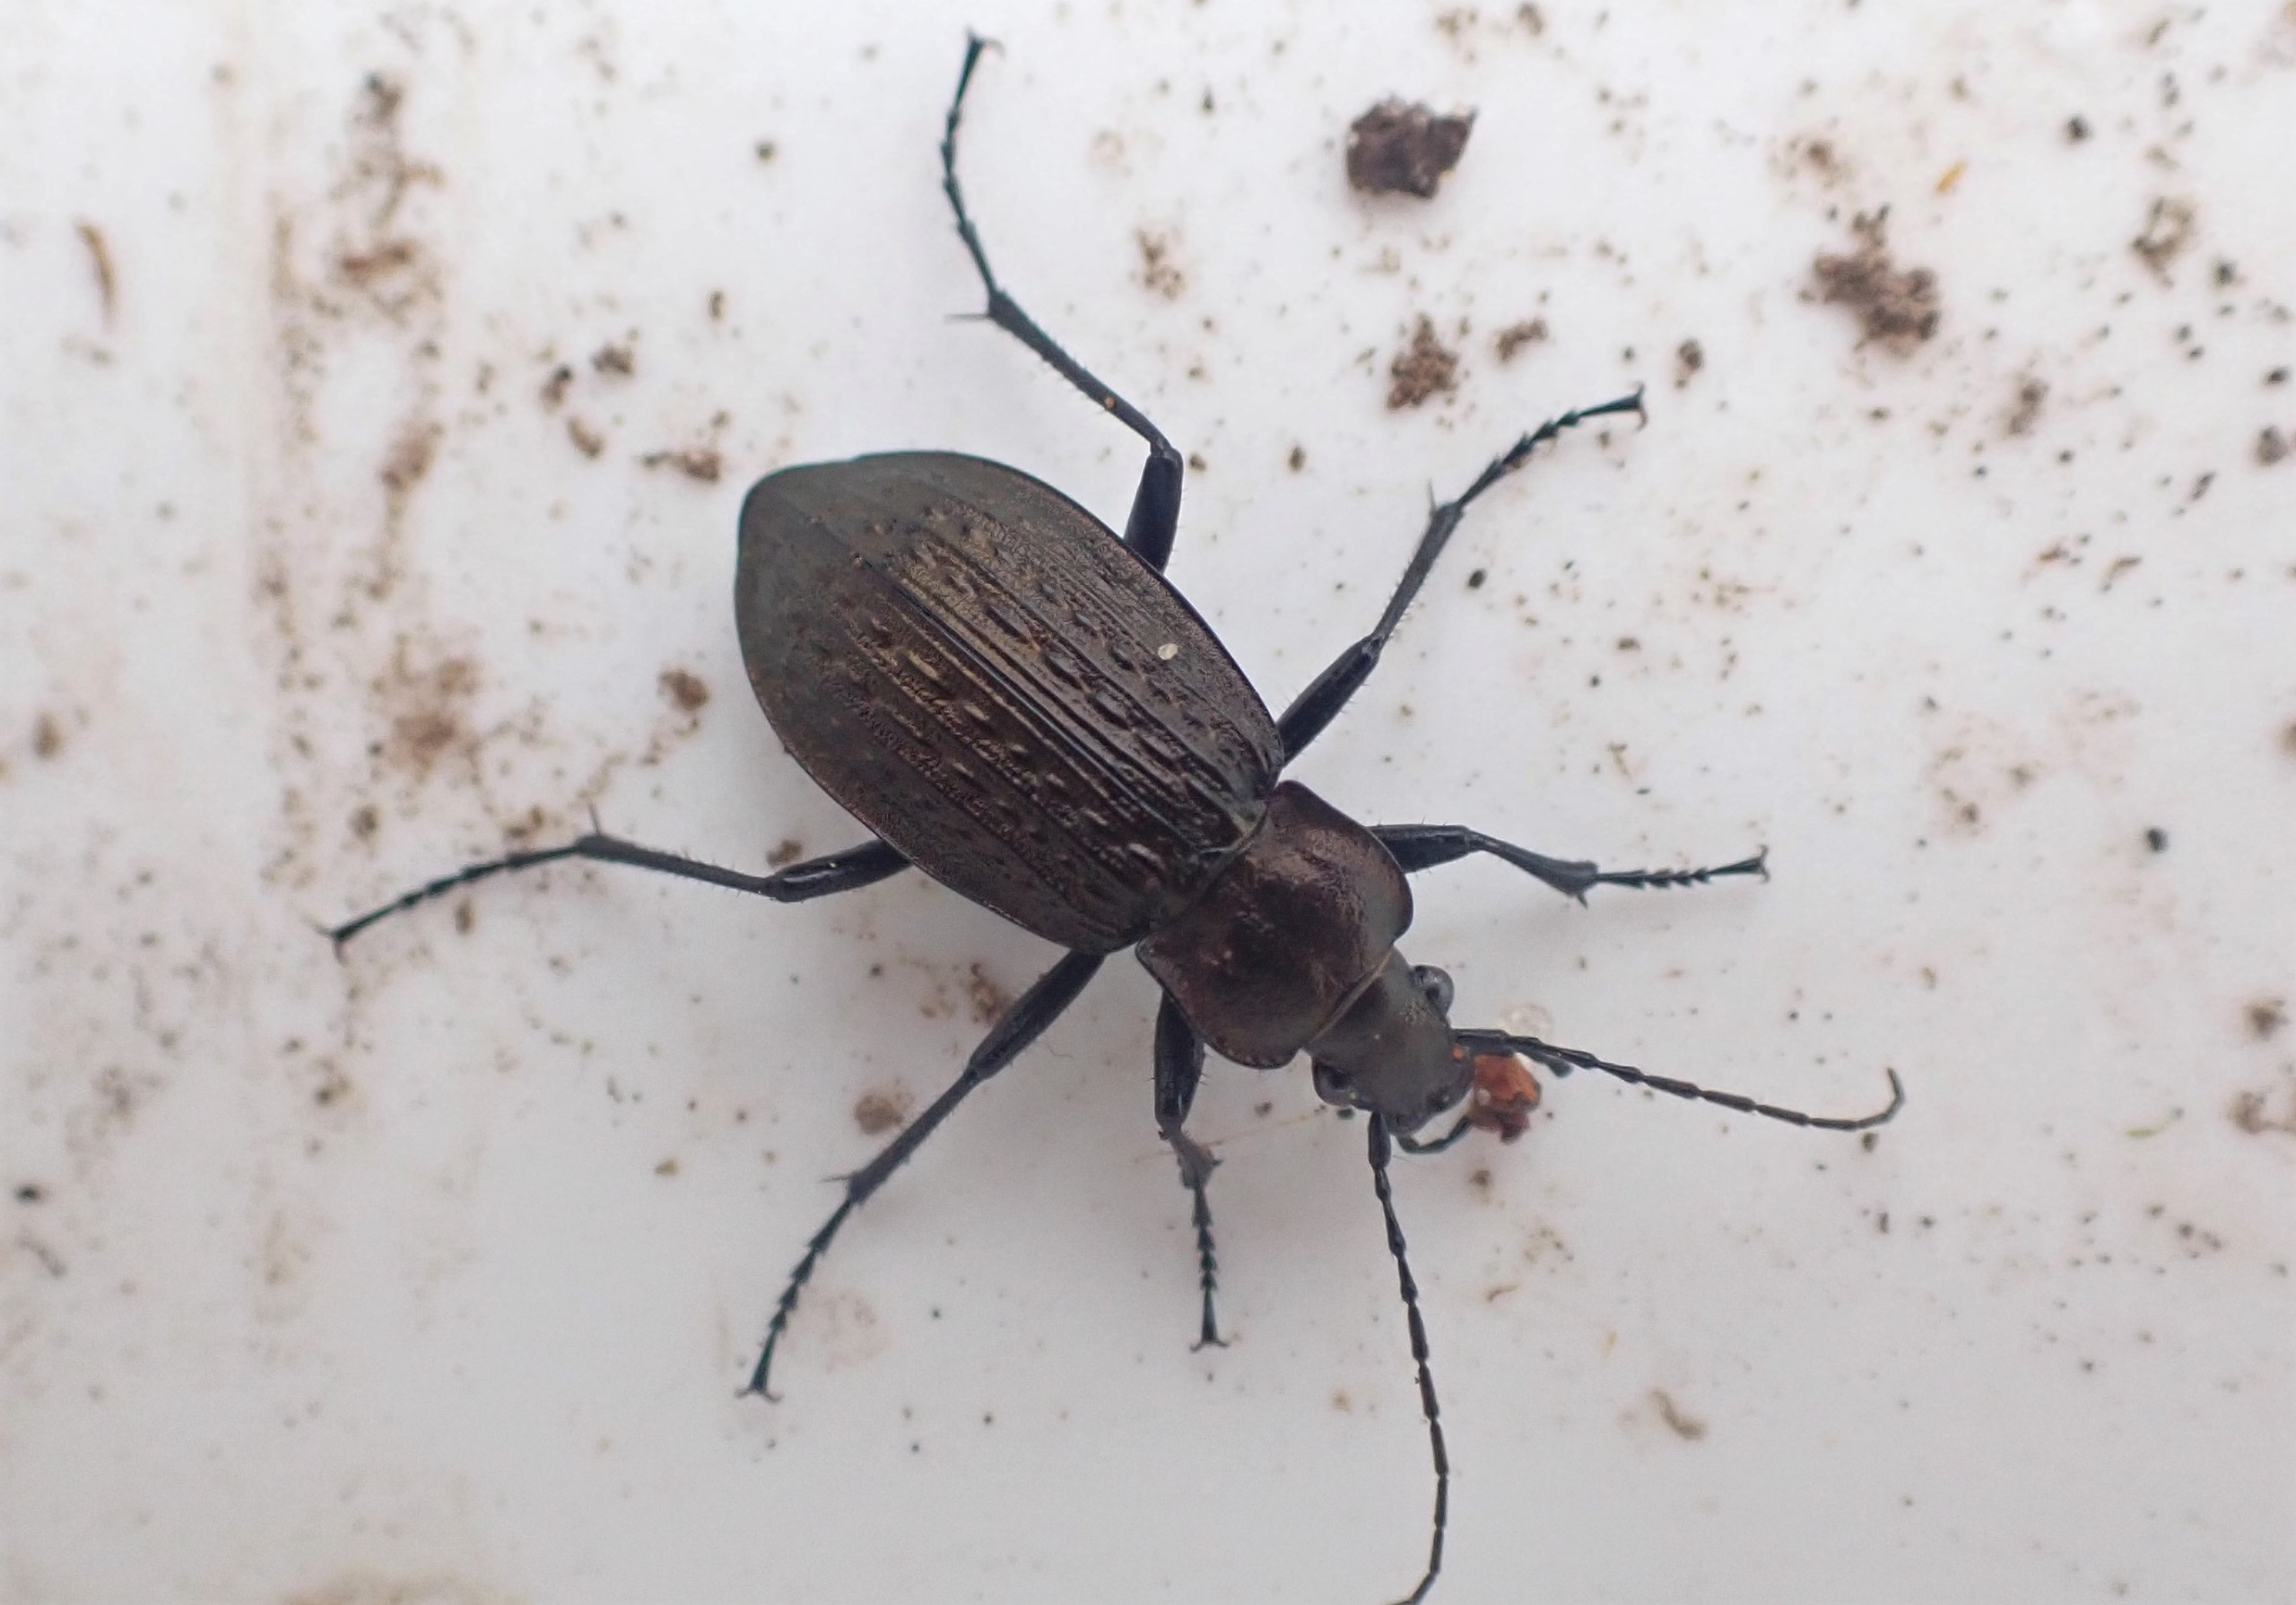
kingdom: Animalia
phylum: Arthropoda
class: Insecta
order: Coleoptera
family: Carabidae
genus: Carabus
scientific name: Carabus granulatus
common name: Kornet løber
